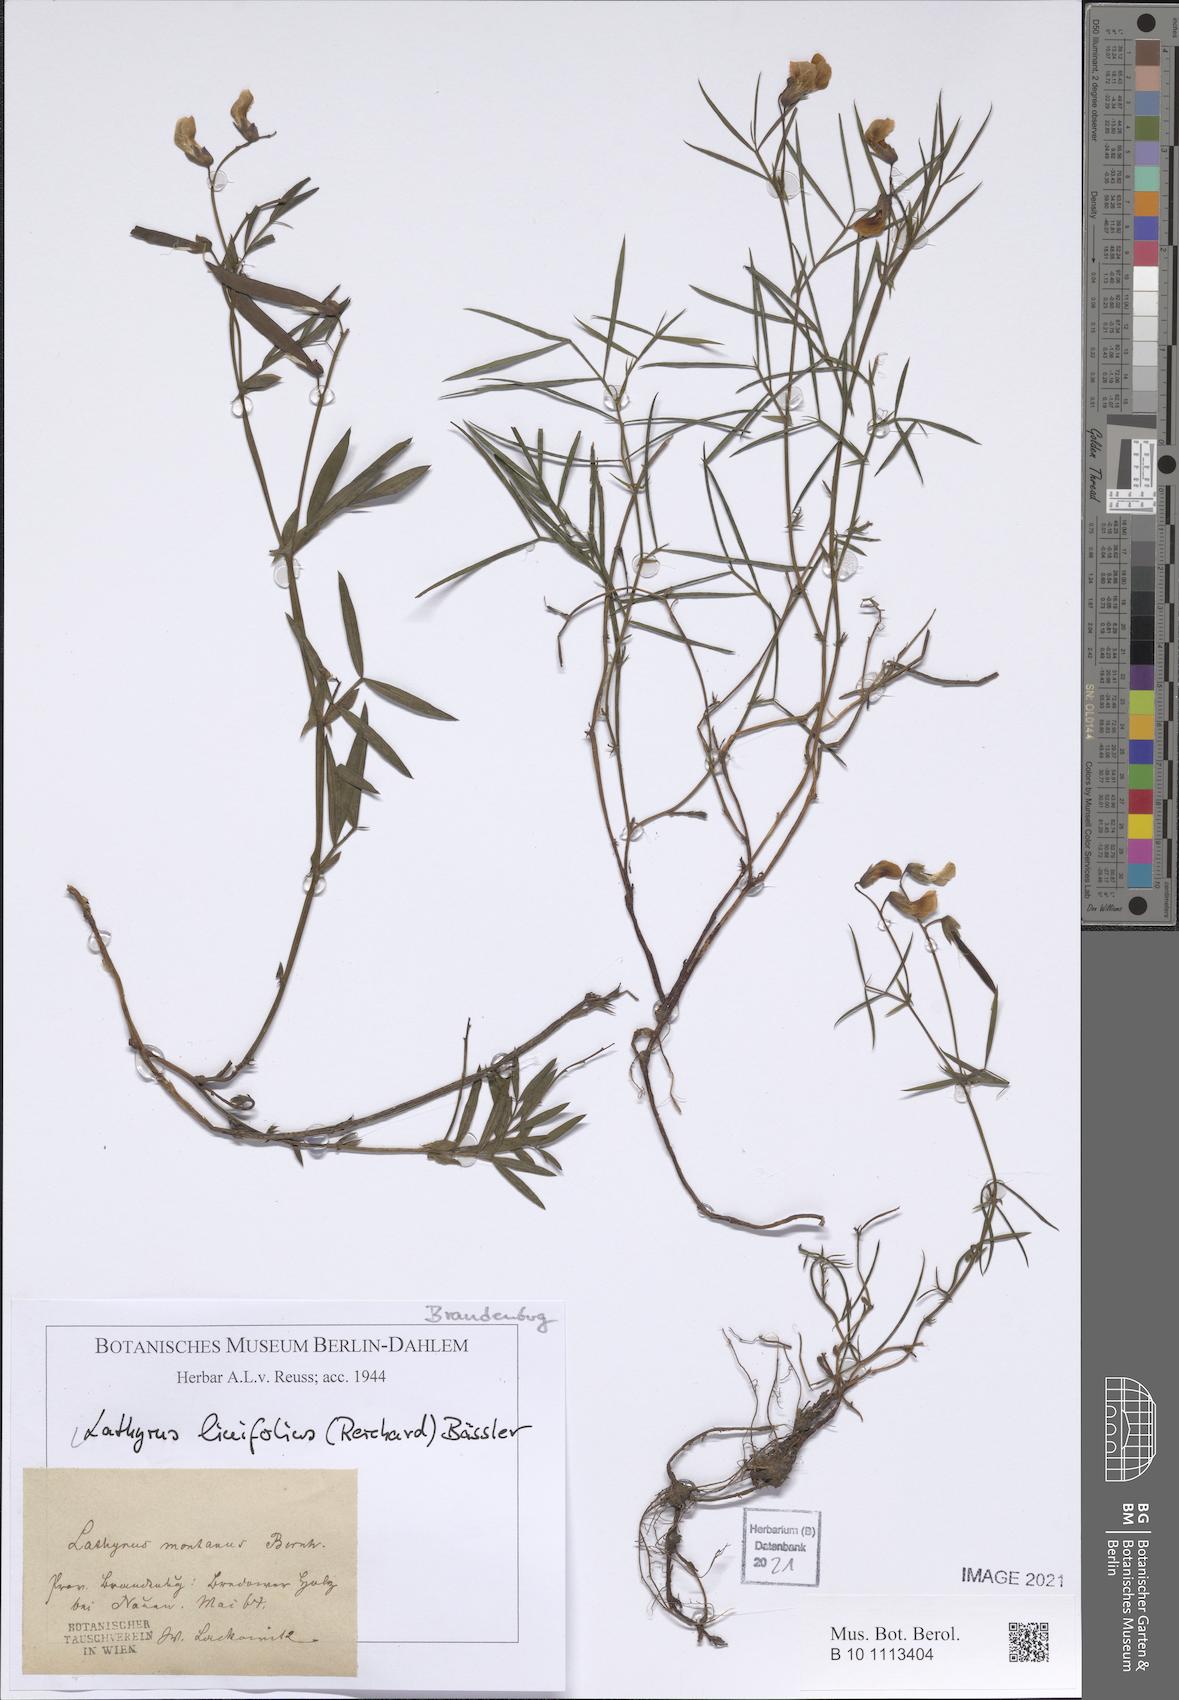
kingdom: Plantae
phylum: Tracheophyta
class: Magnoliopsida
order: Fabales
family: Fabaceae
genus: Lathyrus
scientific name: Lathyrus linifolius
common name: Bitter-vetch
